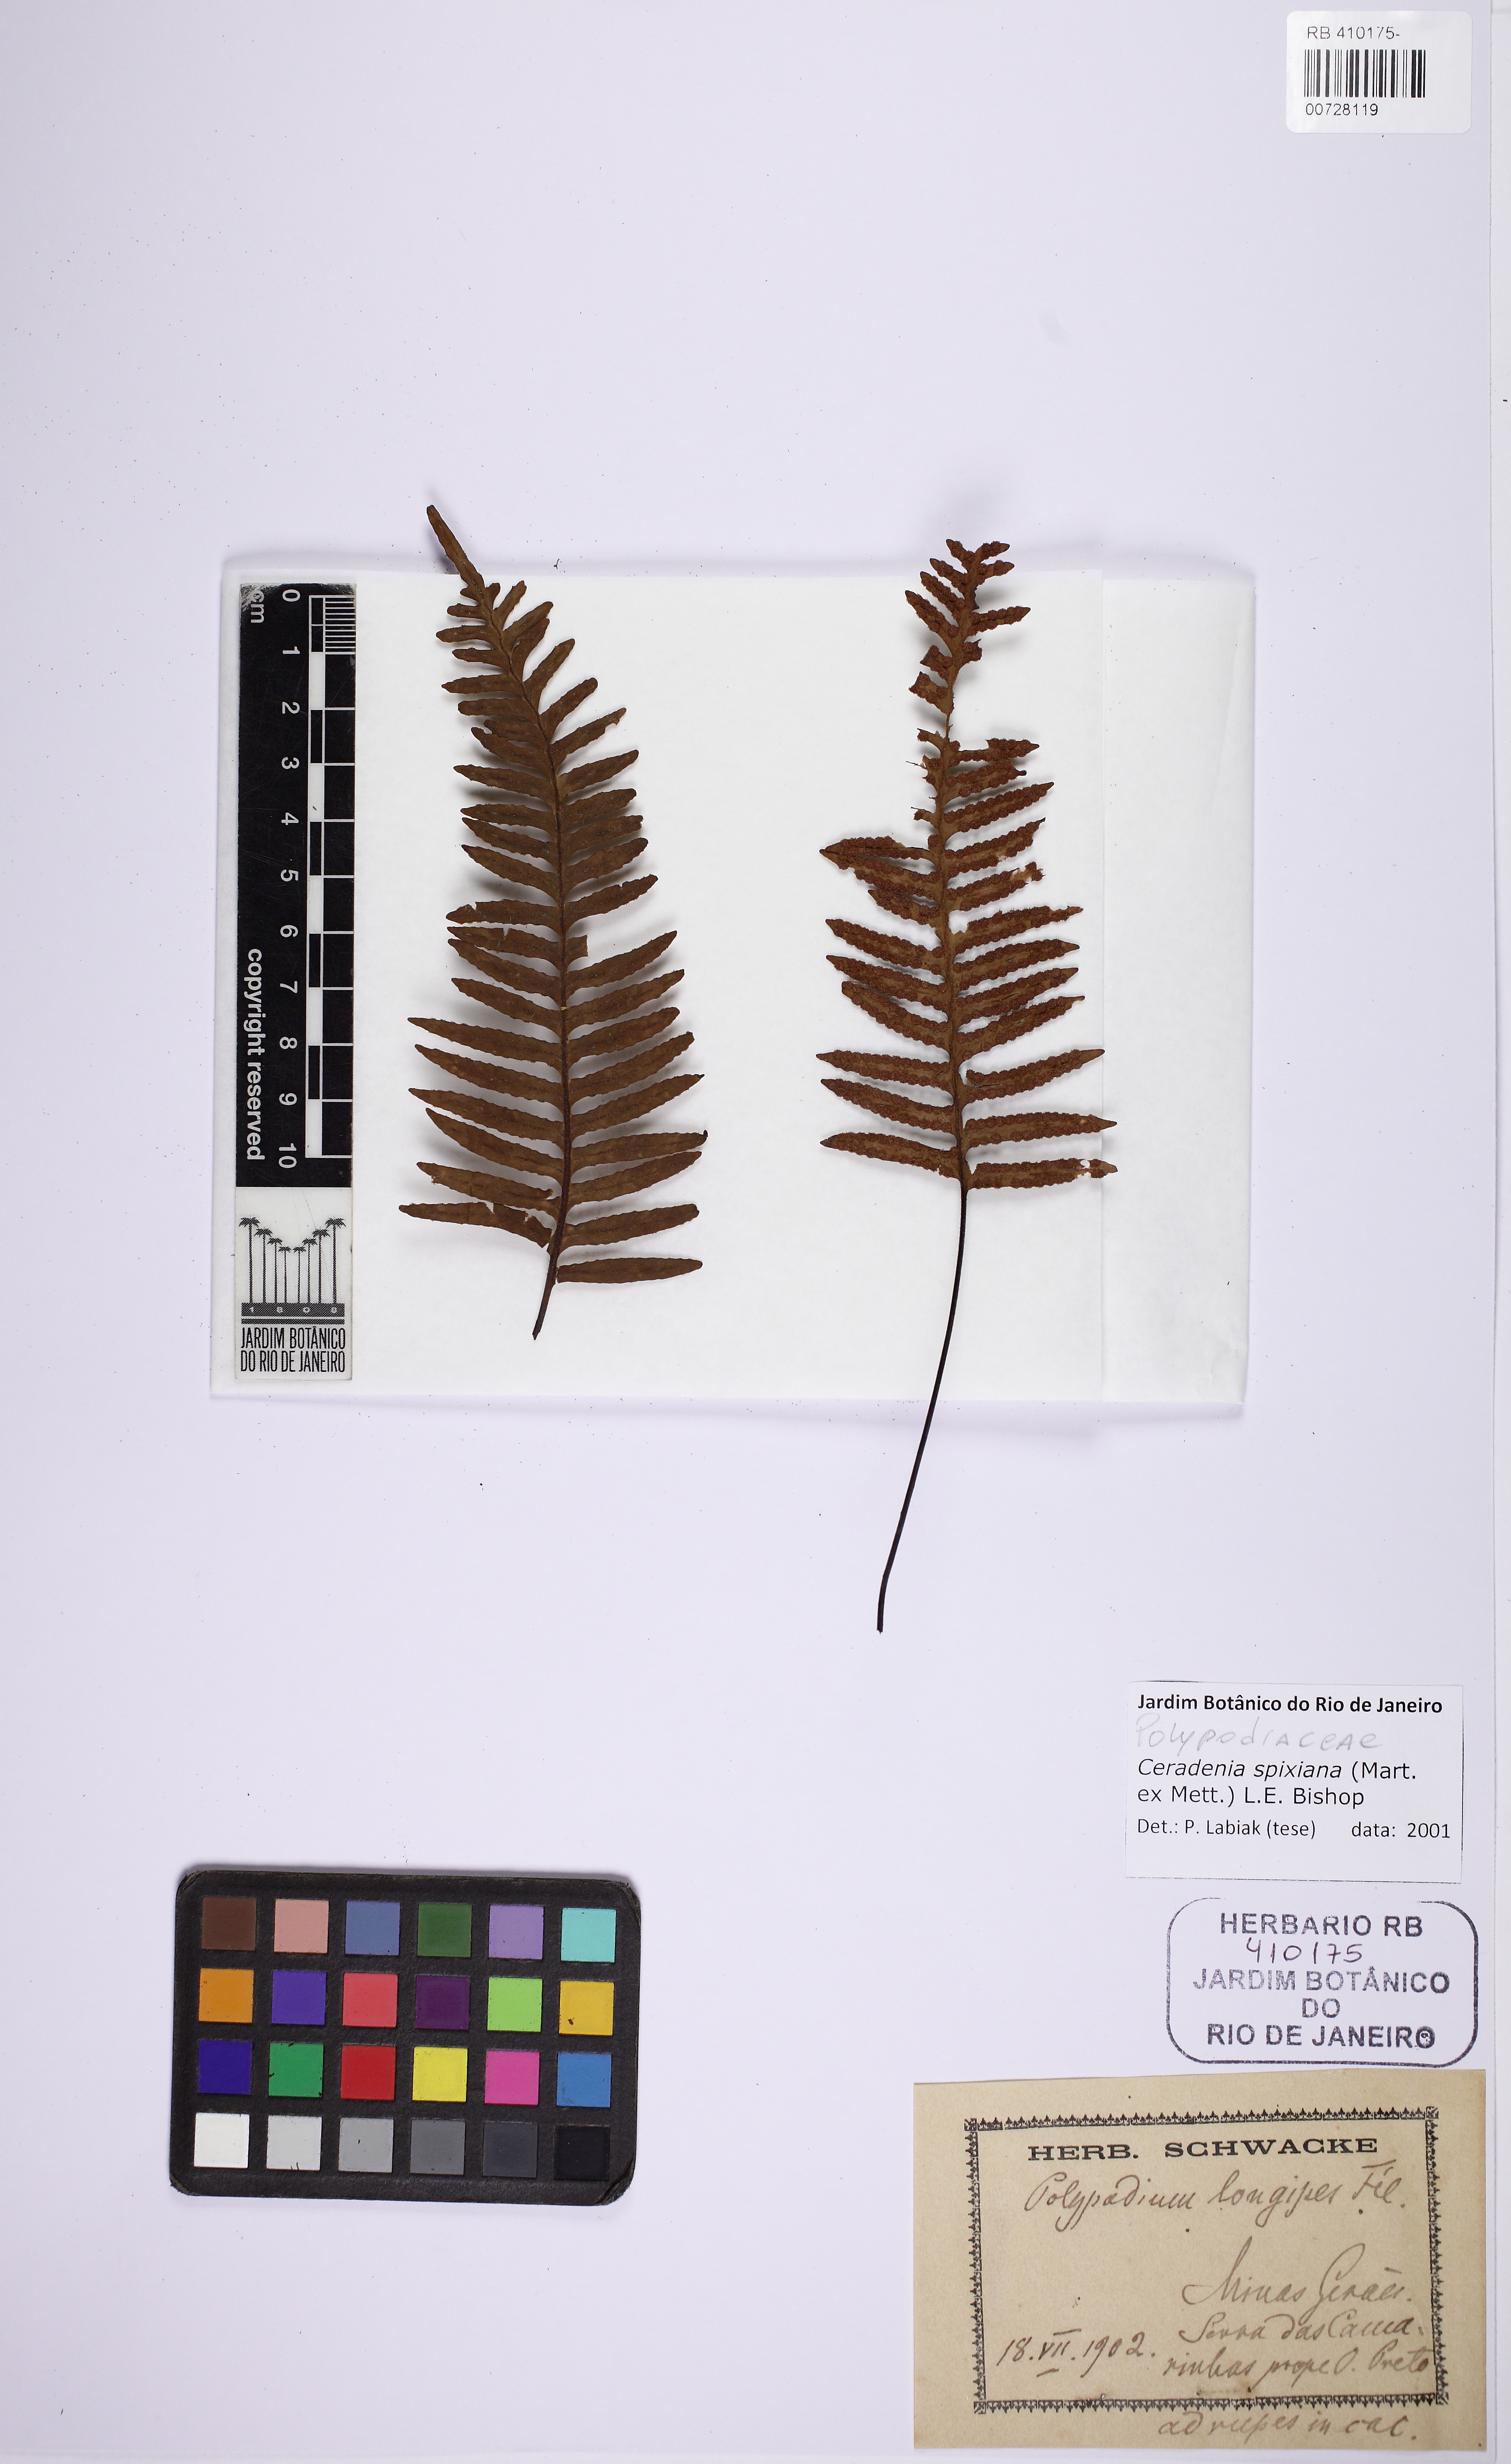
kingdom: Plantae
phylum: Tracheophyta
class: Polypodiopsida
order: Polypodiales
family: Polypodiaceae
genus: Ceradenia
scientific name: Ceradenia spixiana
